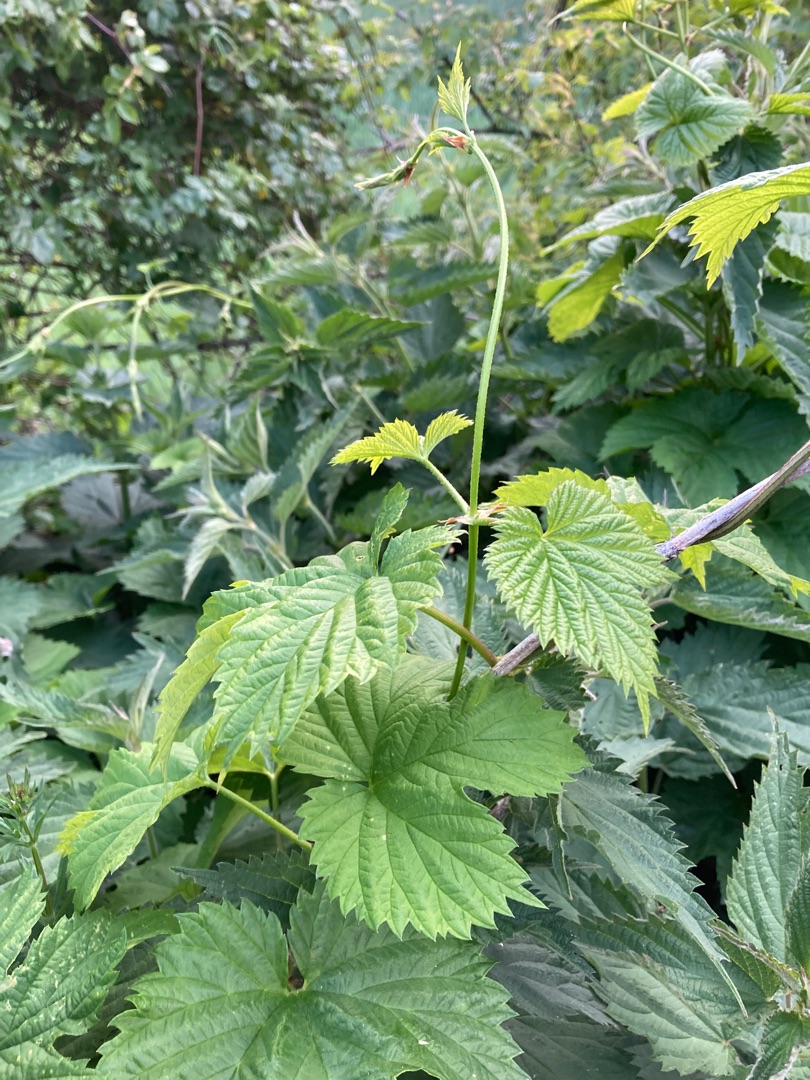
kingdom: Plantae
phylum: Tracheophyta
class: Magnoliopsida
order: Rosales
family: Cannabaceae
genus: Humulus
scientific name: Humulus lupulus
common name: Humle
